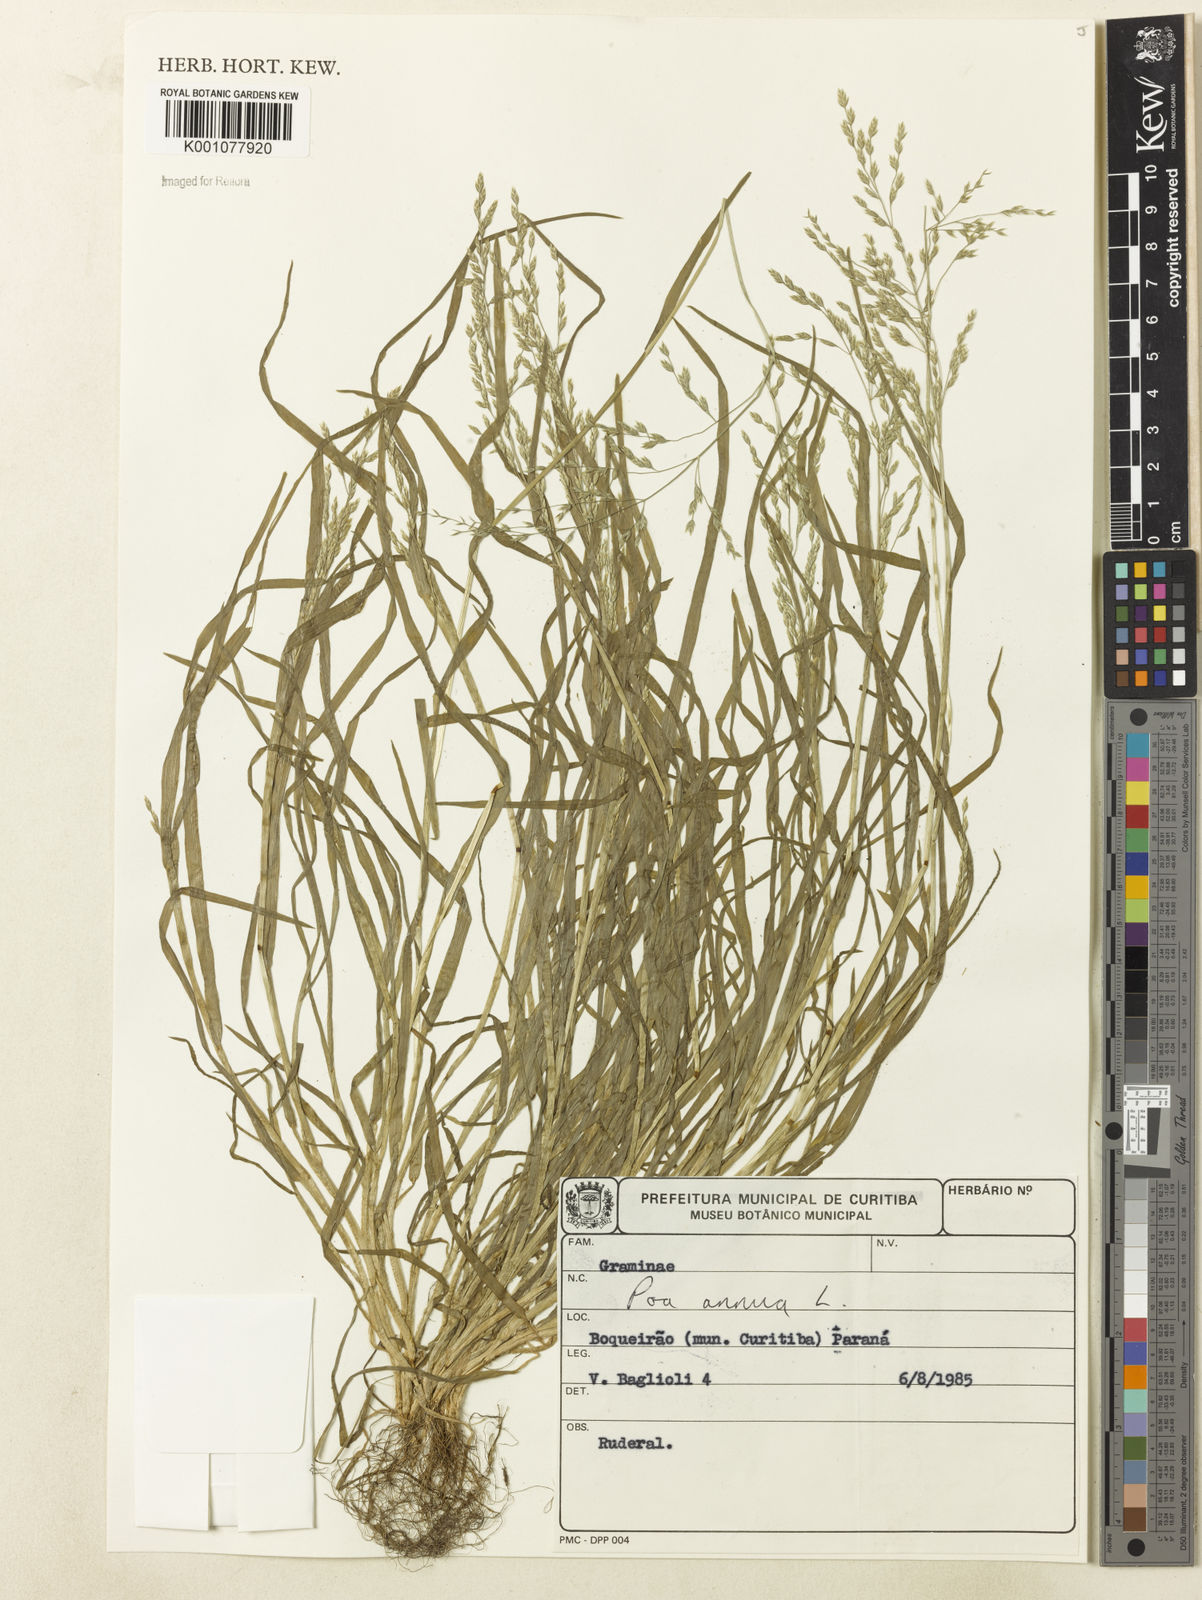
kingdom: Plantae
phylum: Tracheophyta
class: Liliopsida
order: Poales
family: Poaceae
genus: Poa
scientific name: Poa annua
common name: Annual bluegrass
